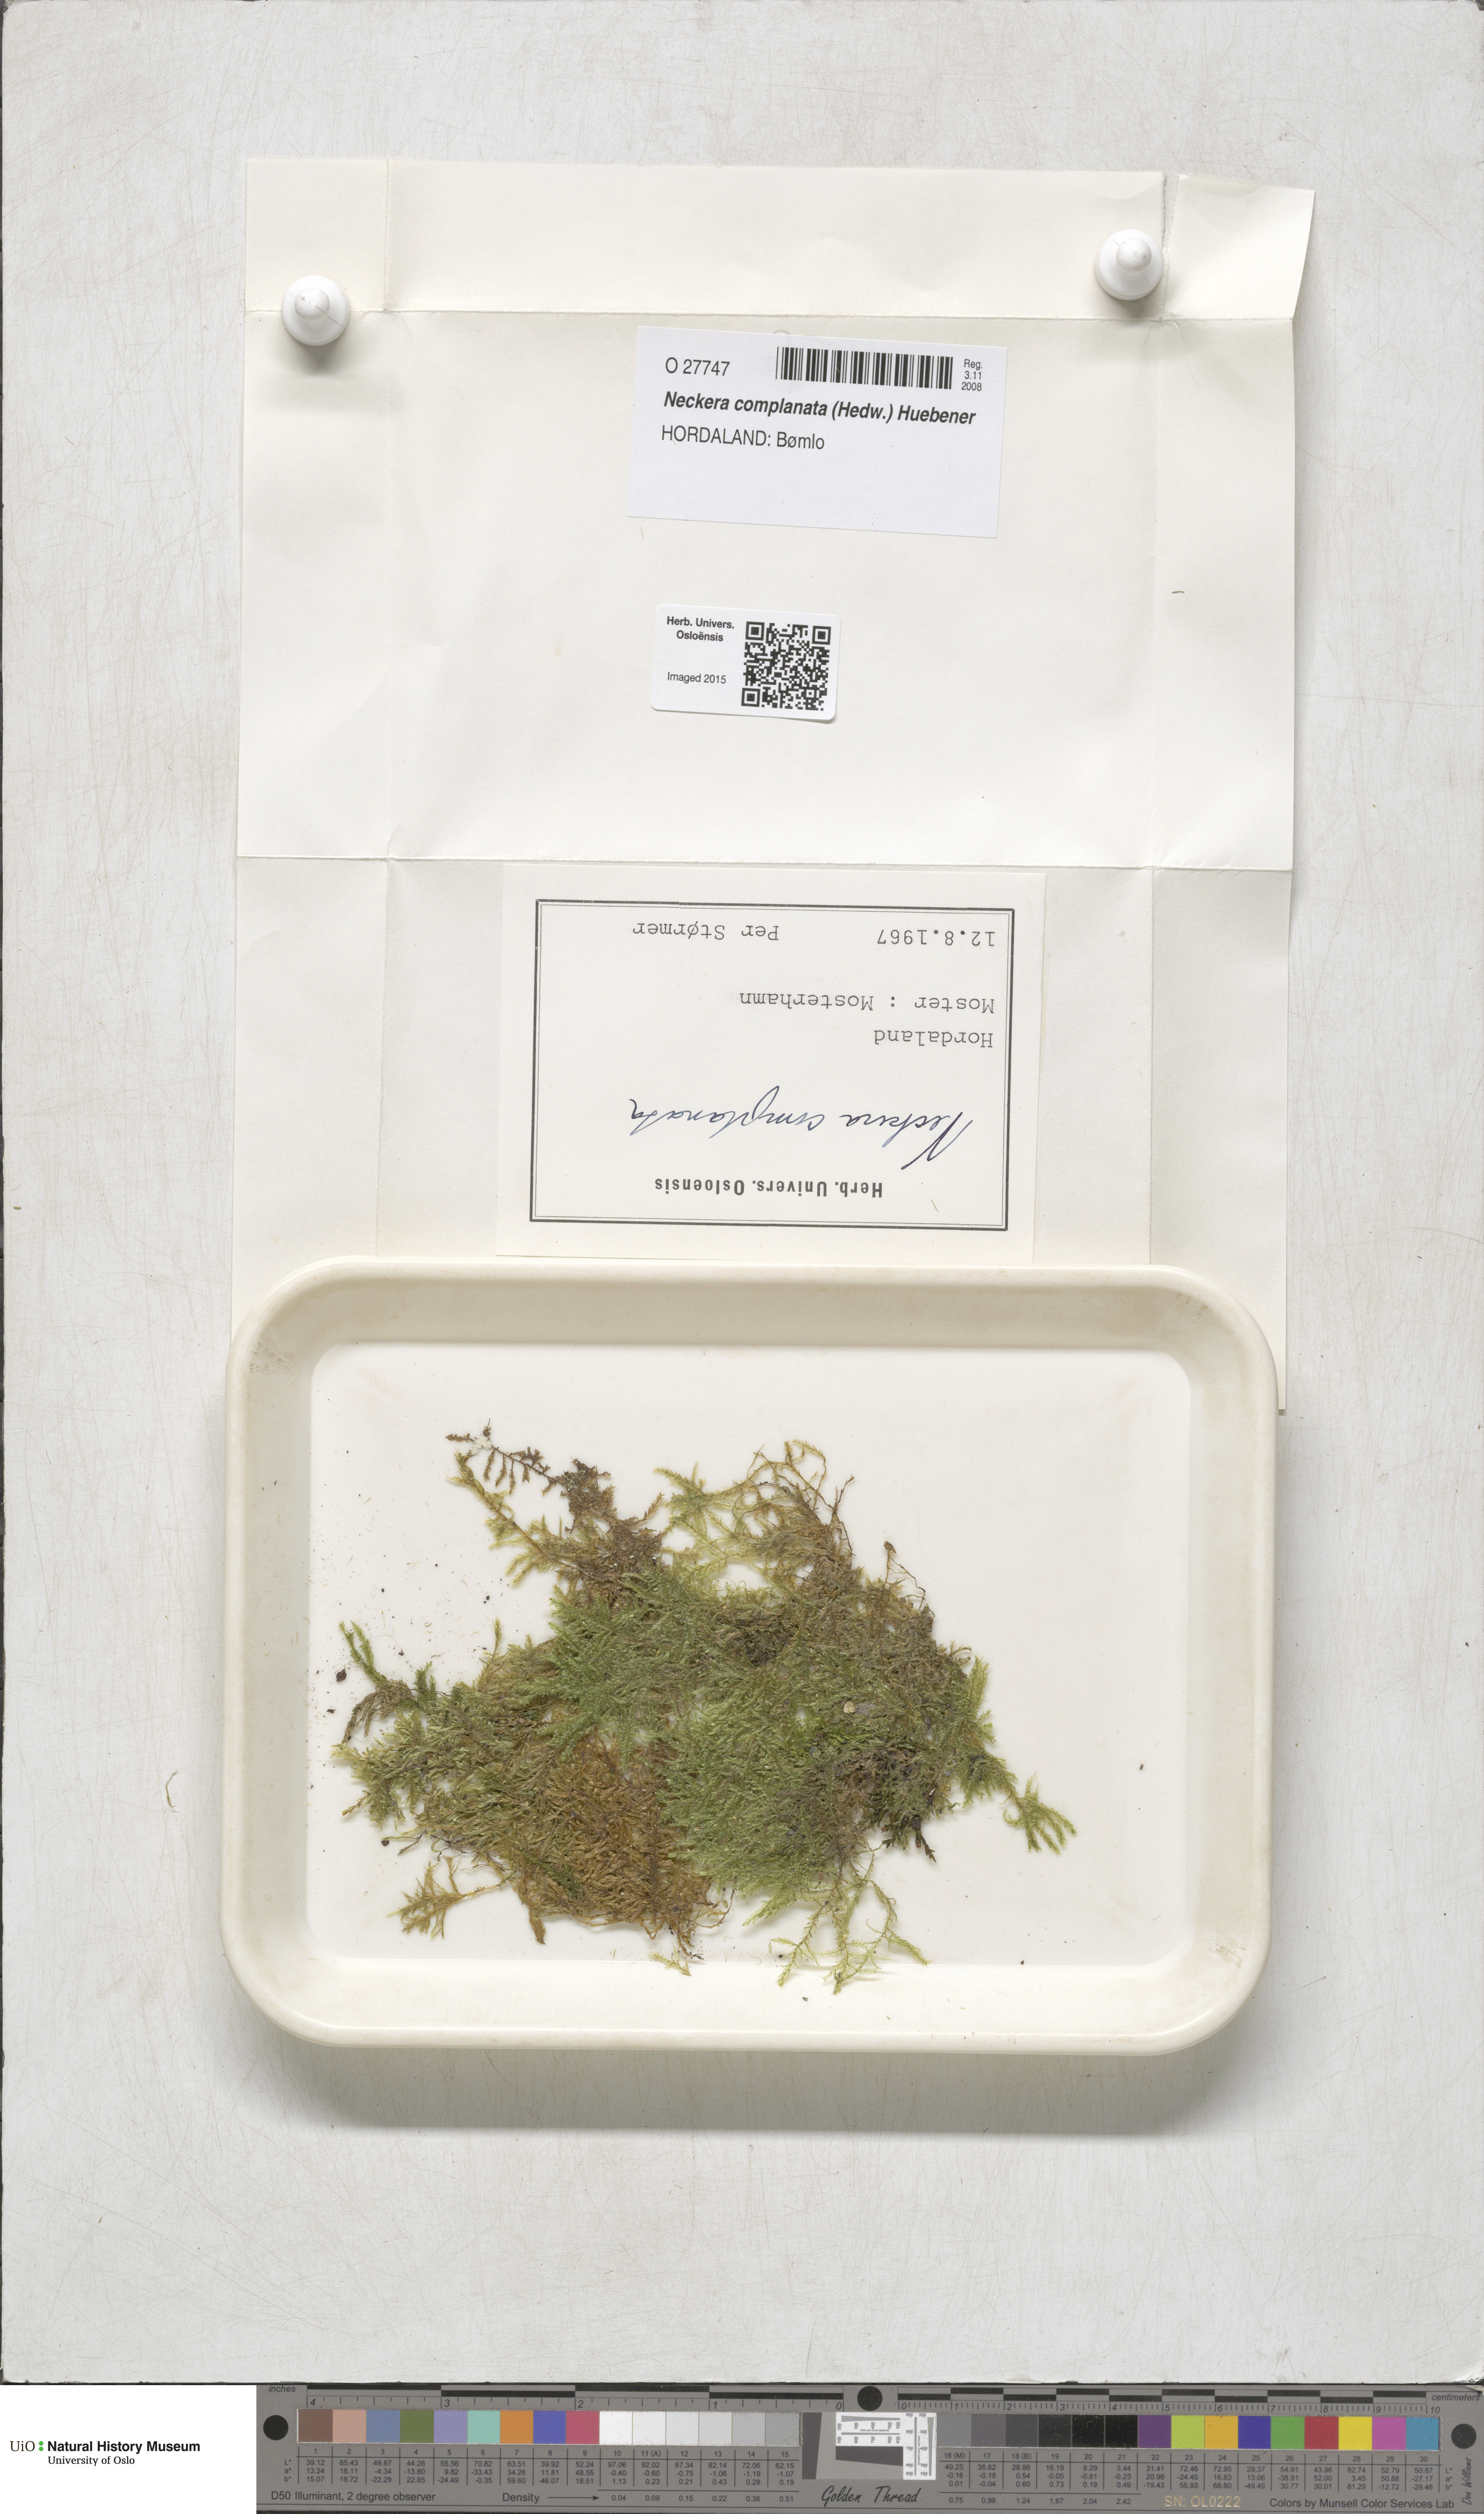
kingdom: Plantae
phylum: Bryophyta
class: Bryopsida
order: Hypnales
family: Neckeraceae
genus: Alleniella
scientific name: Alleniella complanata
